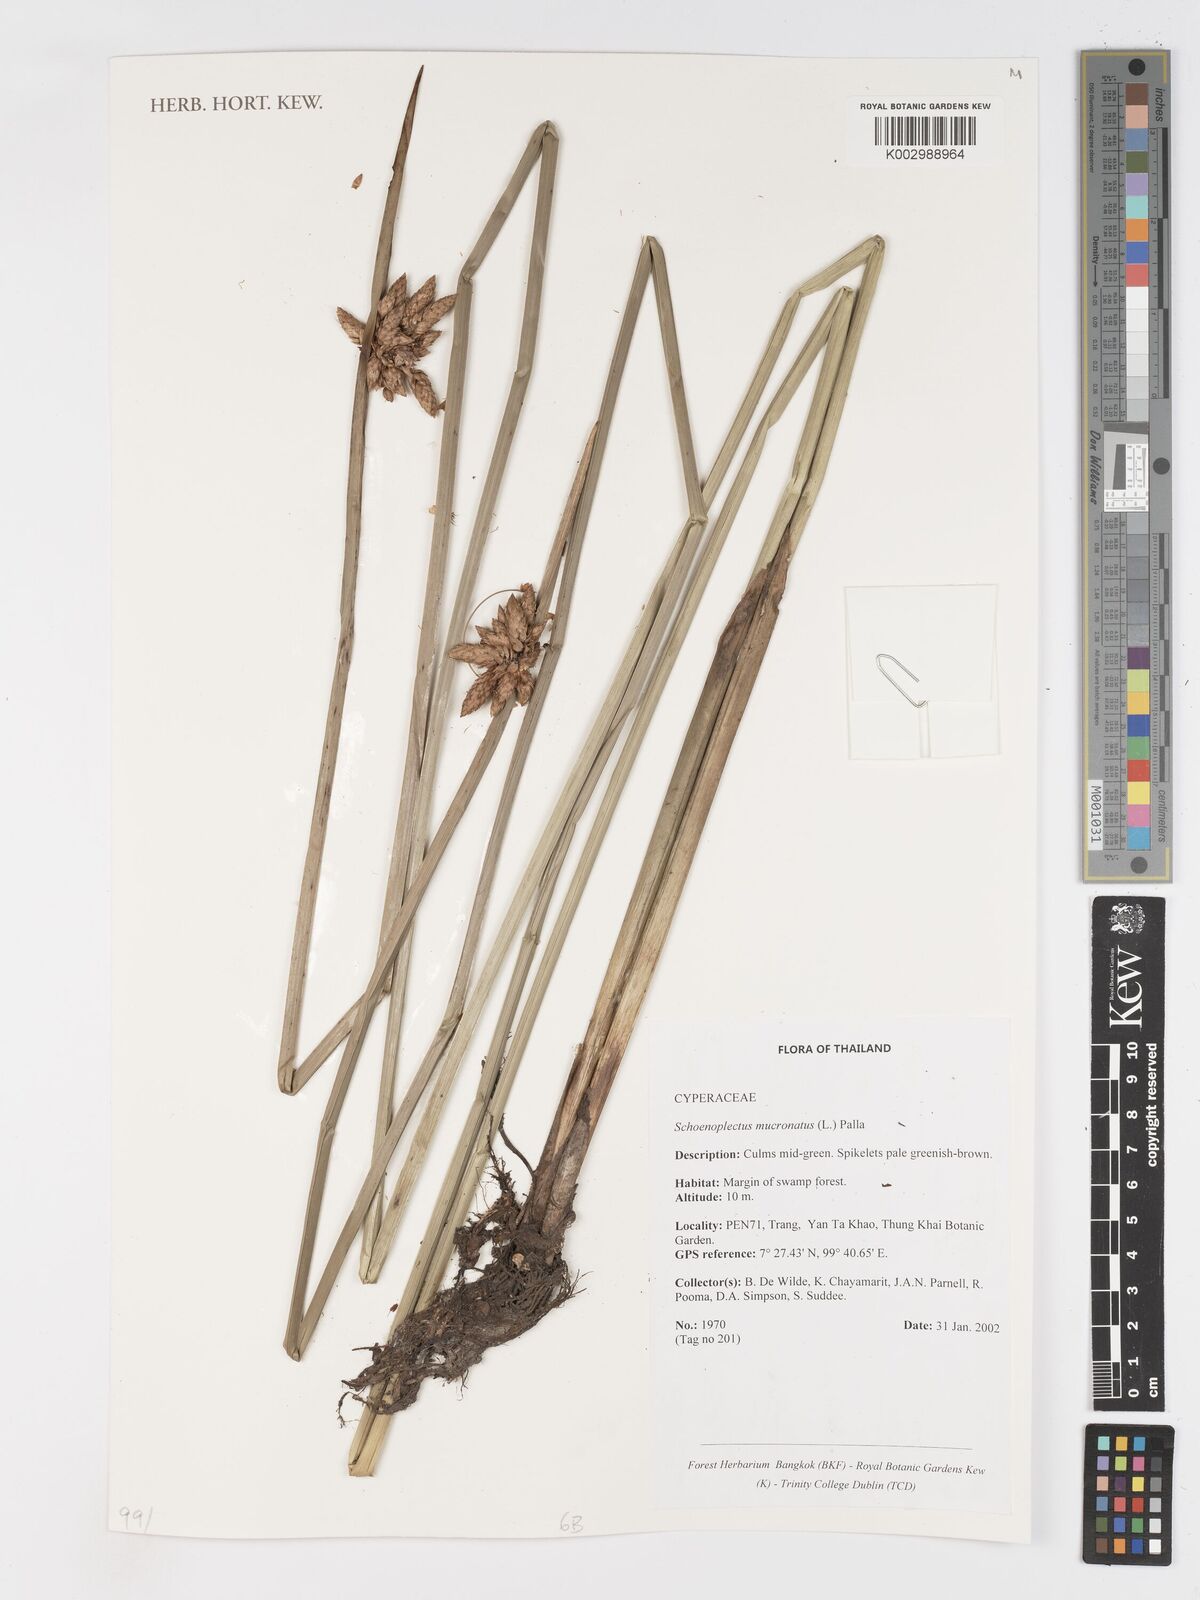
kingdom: Plantae
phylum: Tracheophyta
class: Liliopsida
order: Poales
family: Cyperaceae
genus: Schoenoplectiella
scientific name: Schoenoplectiella mucronata
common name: Bog bulrush
